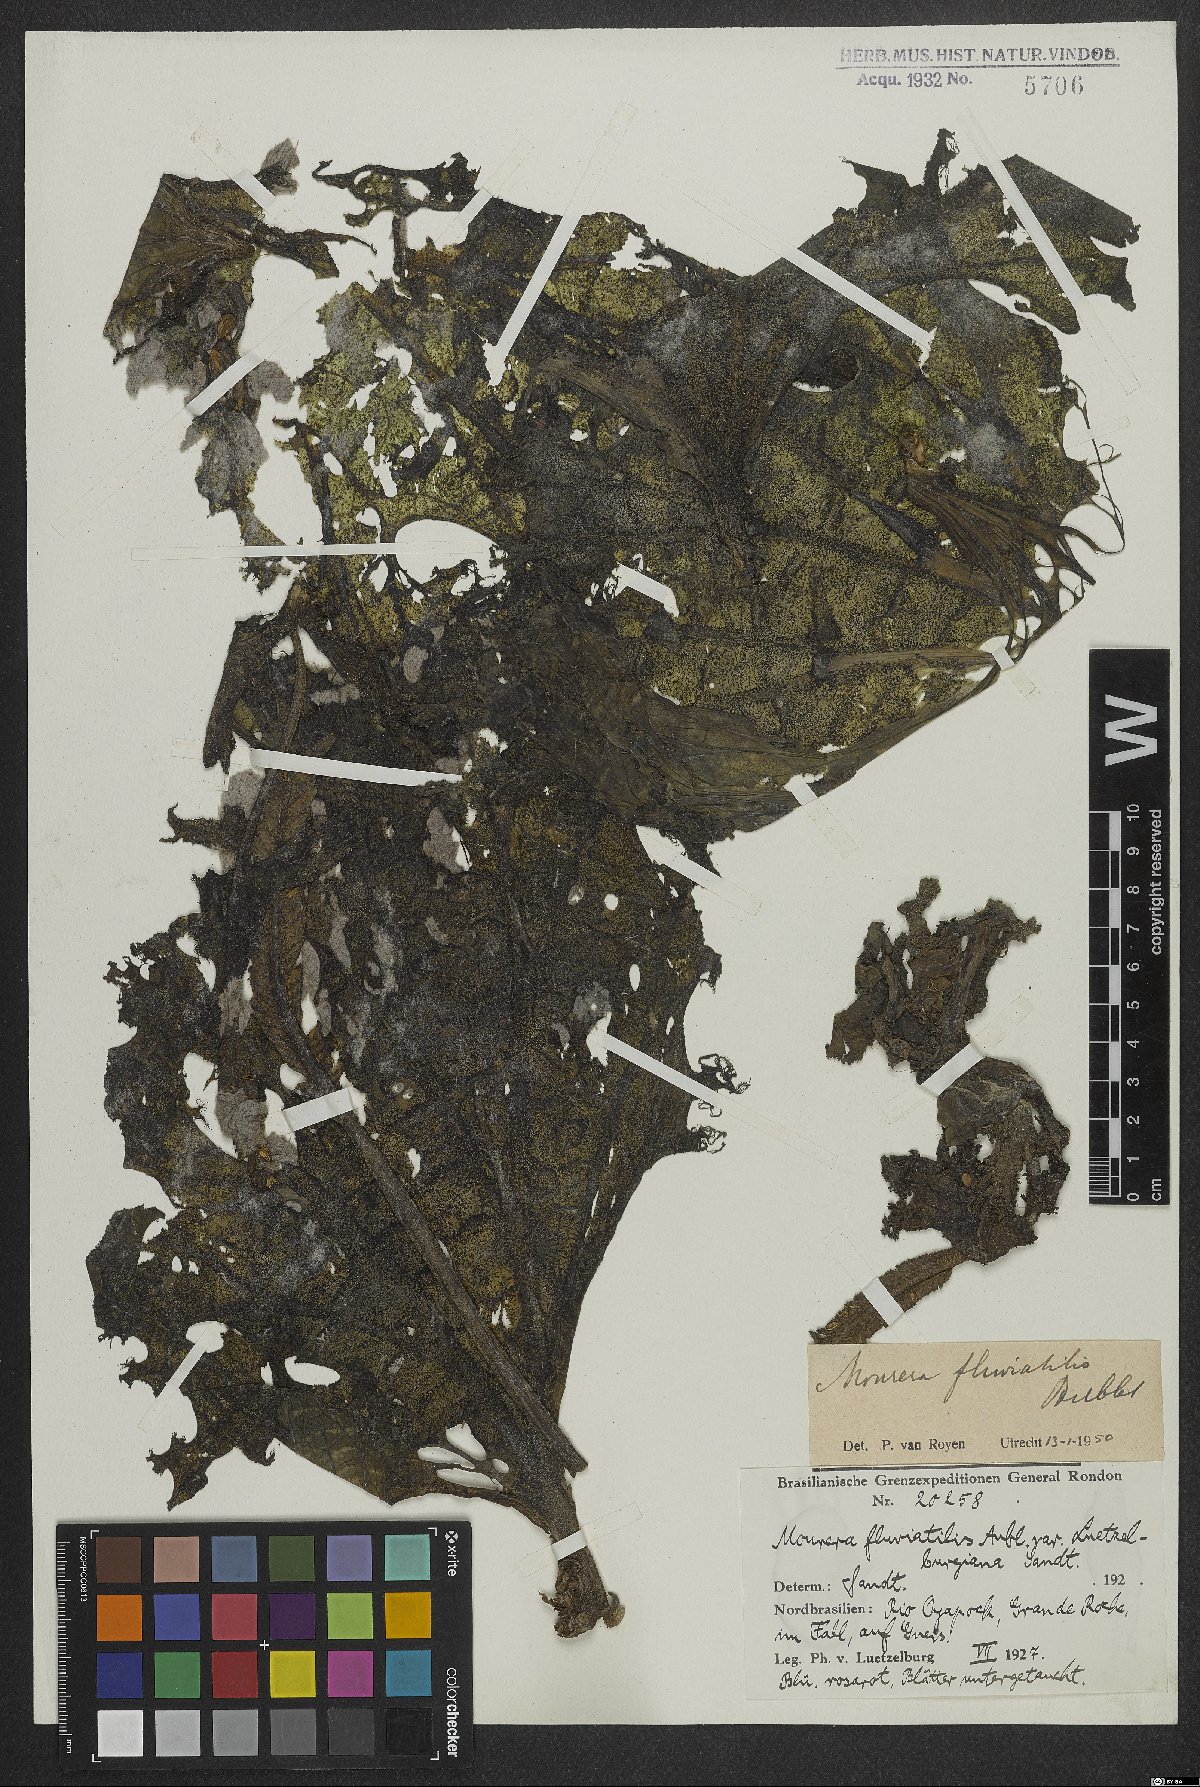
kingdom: Plantae
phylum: Tracheophyta
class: Magnoliopsida
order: Malpighiales
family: Podostemaceae
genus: Mourera
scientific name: Mourera fluviatilis
